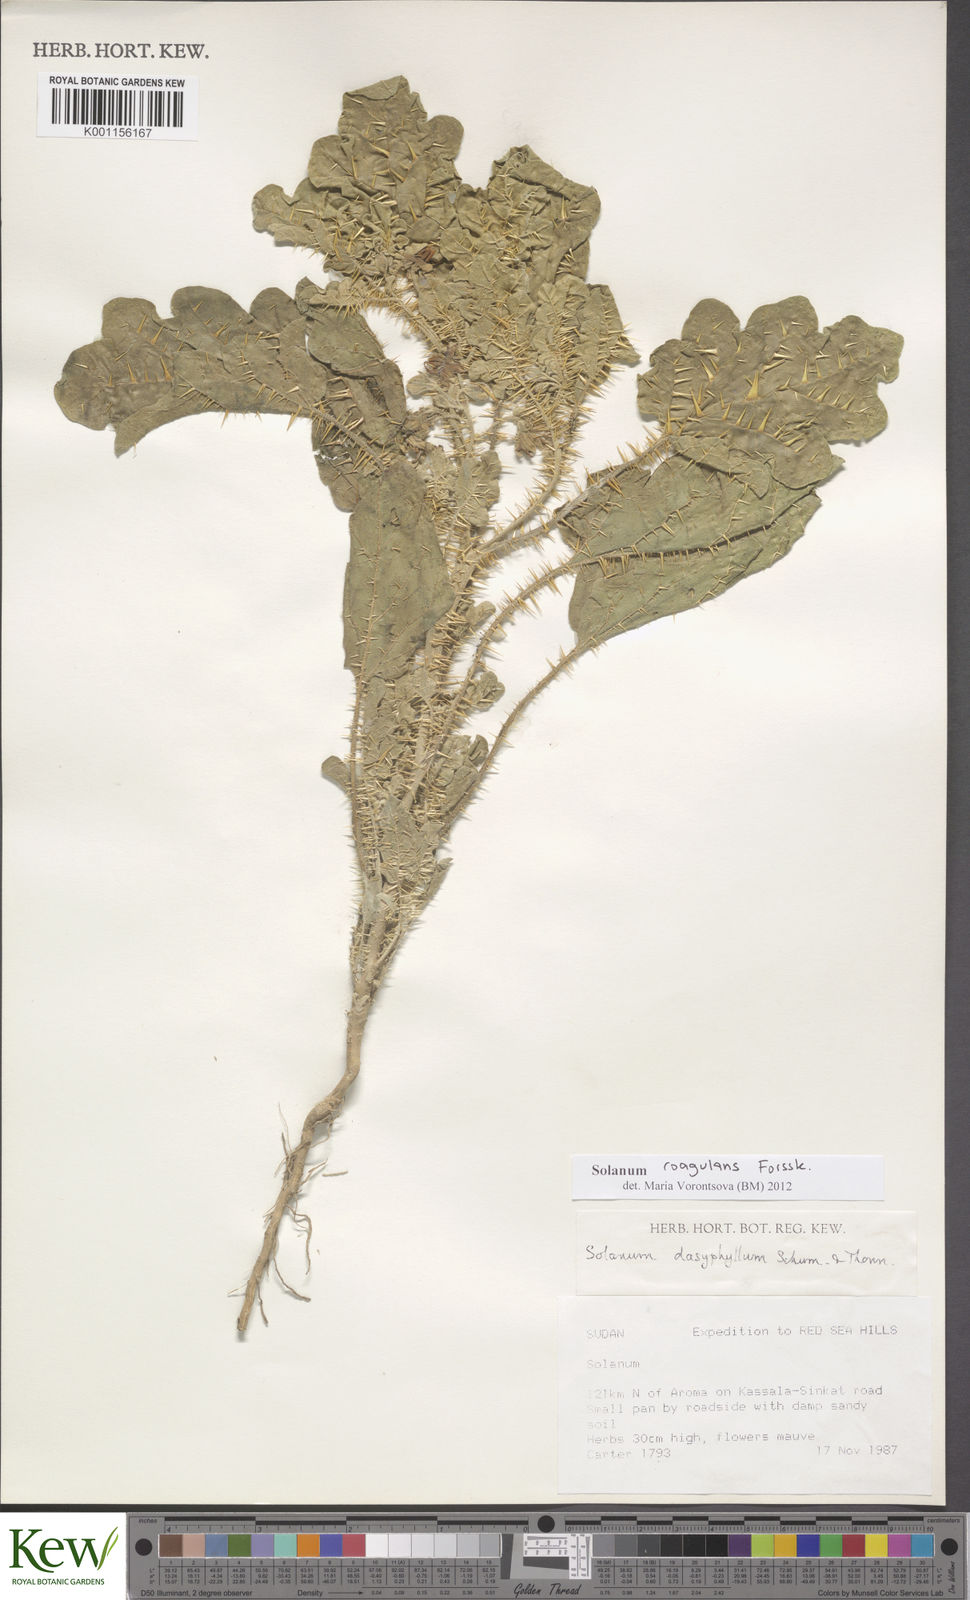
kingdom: Plantae
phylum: Tracheophyta
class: Magnoliopsida
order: Solanales
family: Solanaceae
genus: Solanum
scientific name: Solanum coagulans
